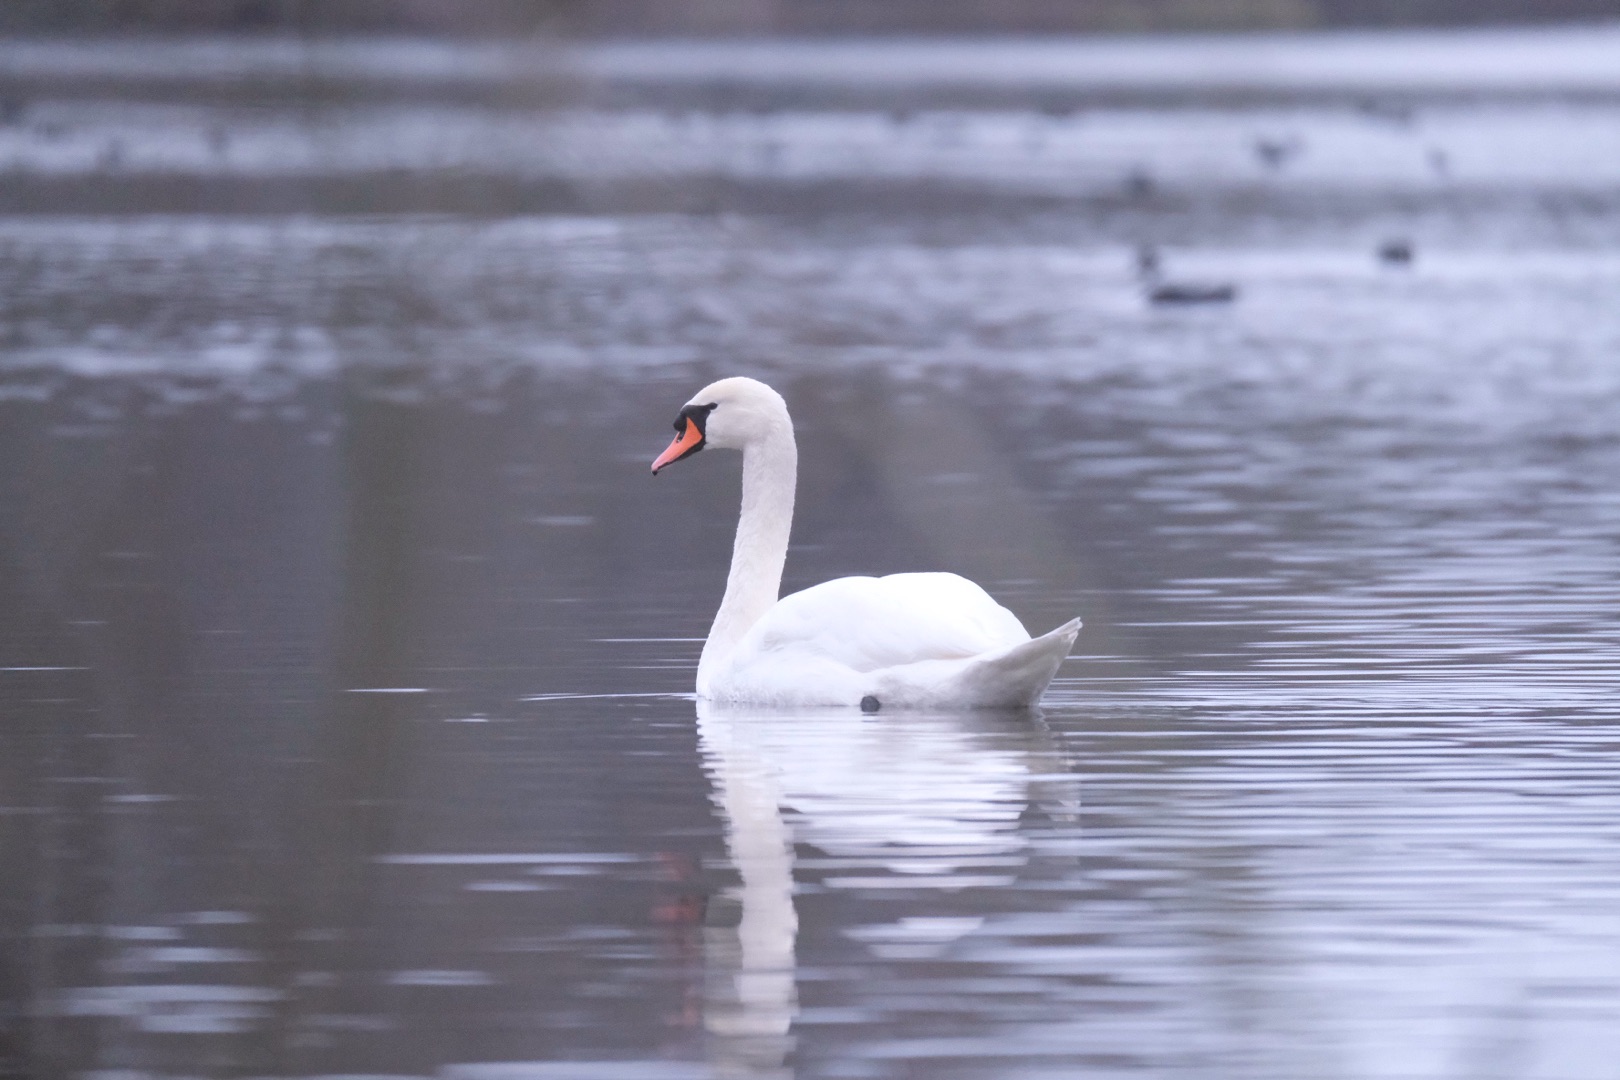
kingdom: Animalia
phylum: Chordata
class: Aves
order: Anseriformes
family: Anatidae
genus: Cygnus
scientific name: Cygnus olor
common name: Knopsvane
